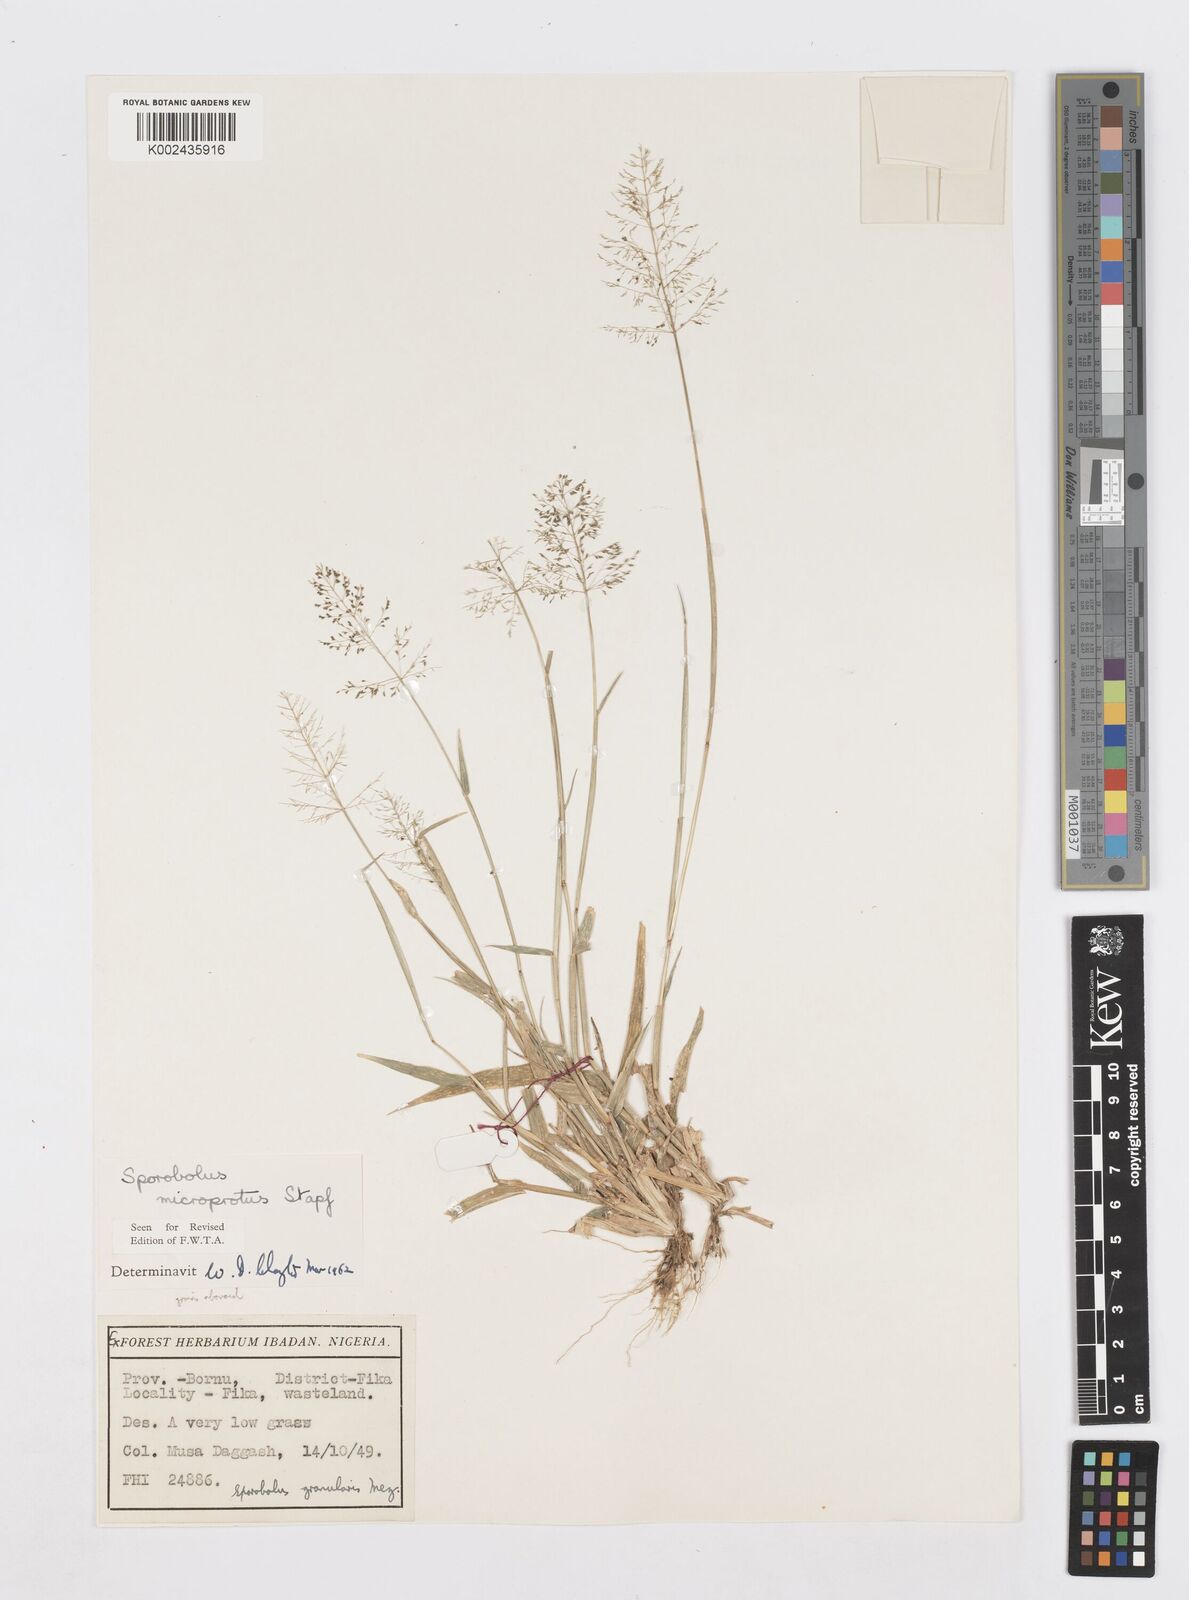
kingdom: Plantae
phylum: Tracheophyta
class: Liliopsida
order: Poales
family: Poaceae
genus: Sporobolus
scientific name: Sporobolus microprotus
